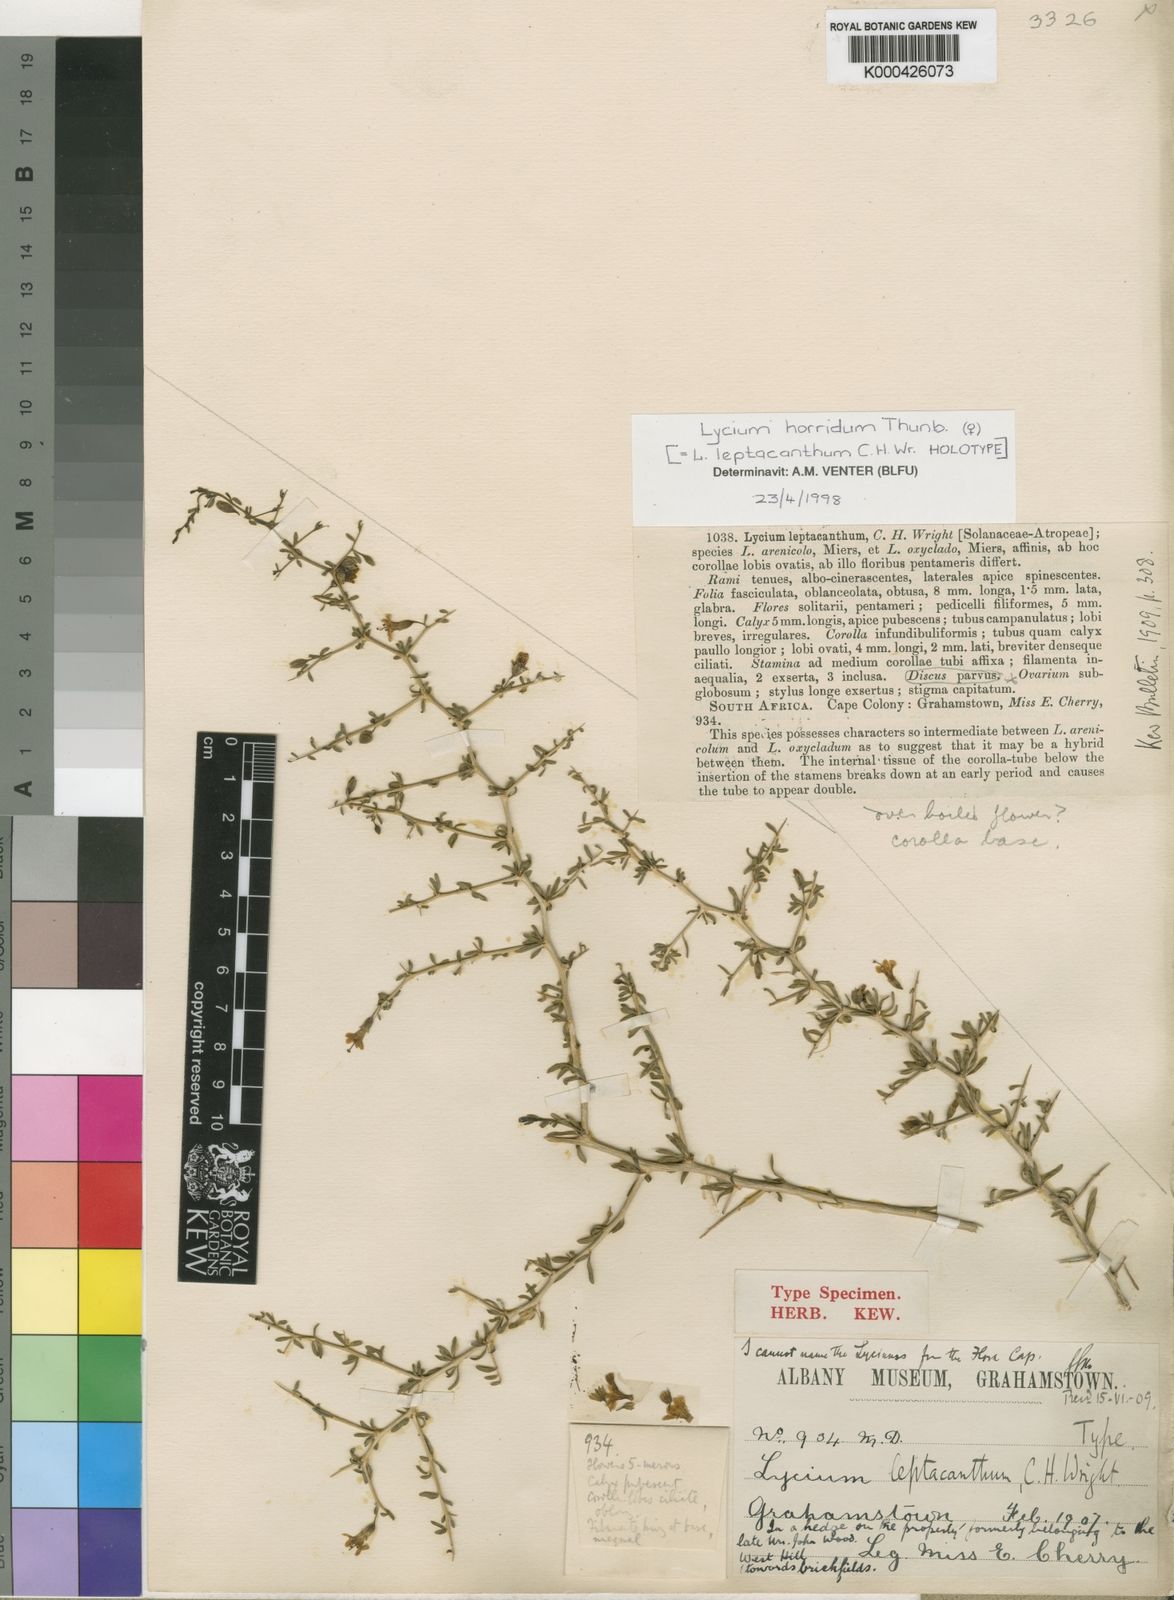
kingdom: Plantae
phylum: Tracheophyta
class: Magnoliopsida
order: Solanales
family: Solanaceae
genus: Lycium
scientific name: Lycium horridum
